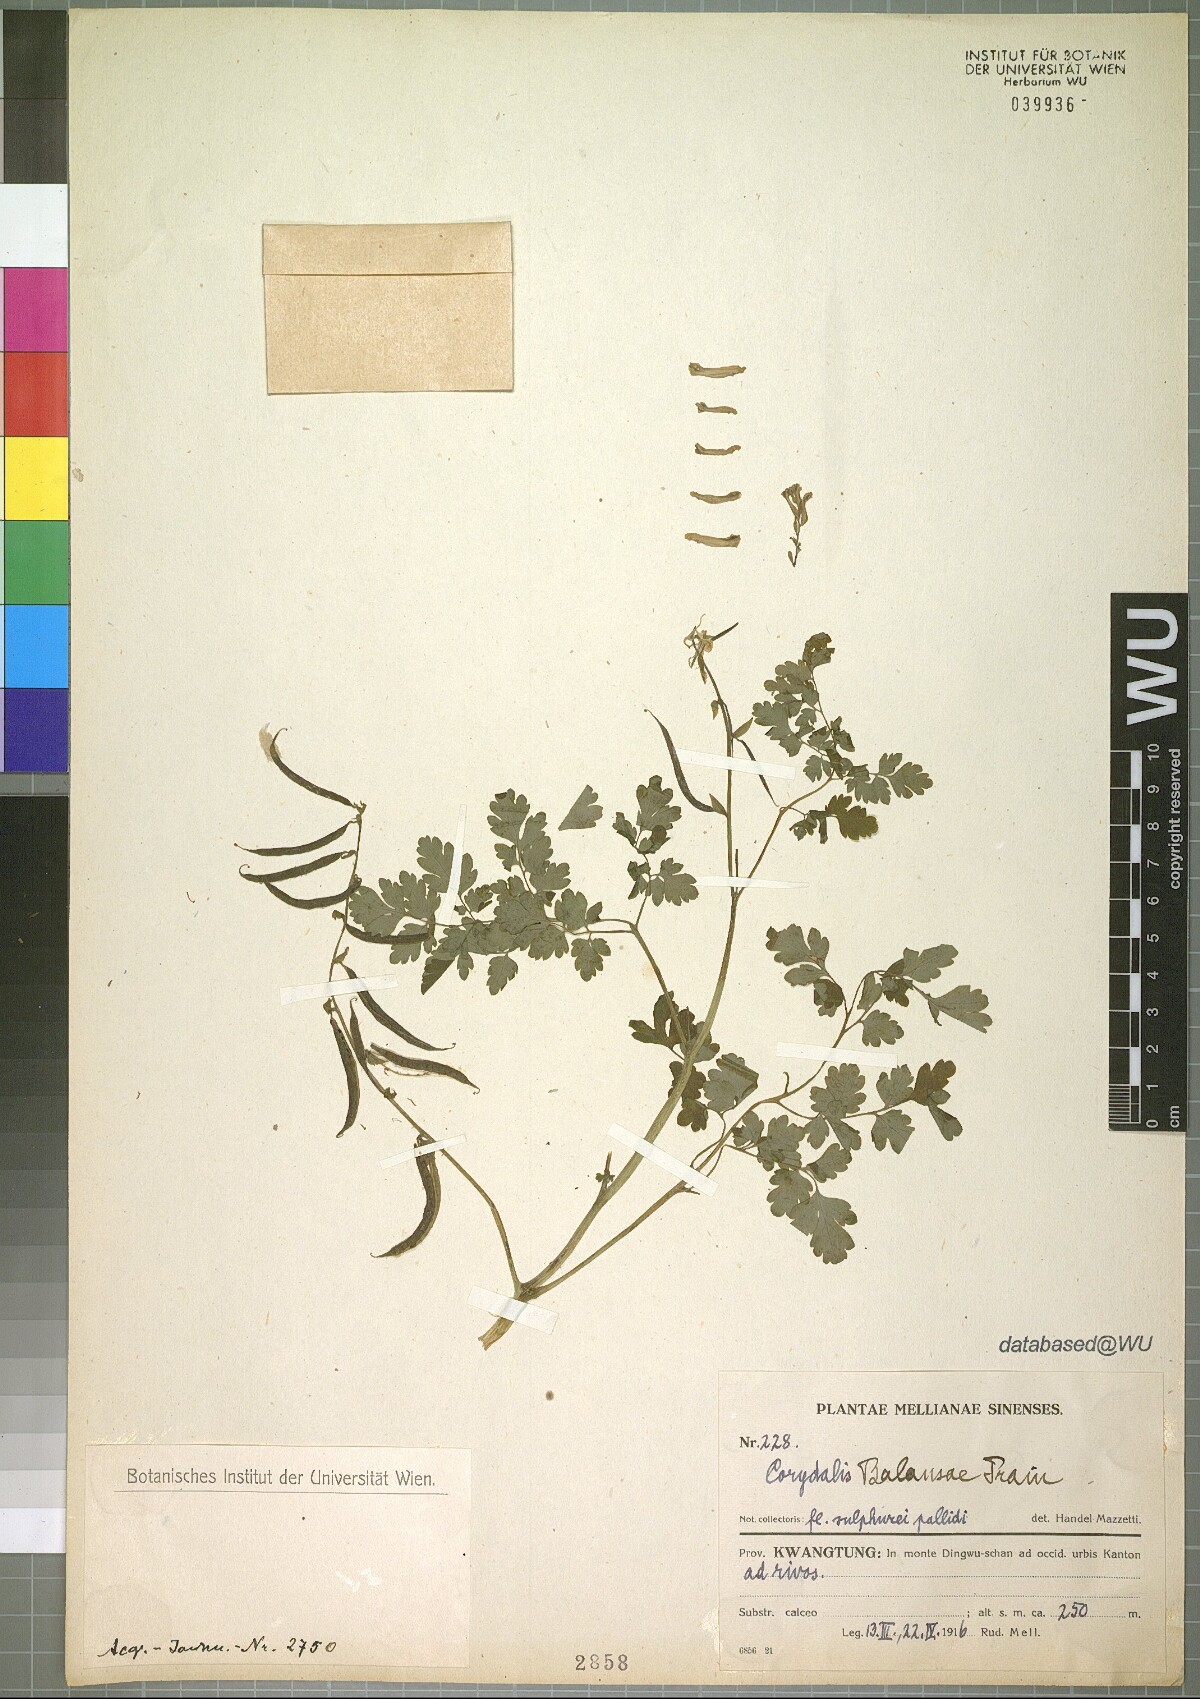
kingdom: Plantae
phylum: Tracheophyta
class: Magnoliopsida
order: Ranunculales
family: Papaveraceae
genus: Corydalis
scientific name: Corydalis balansae
